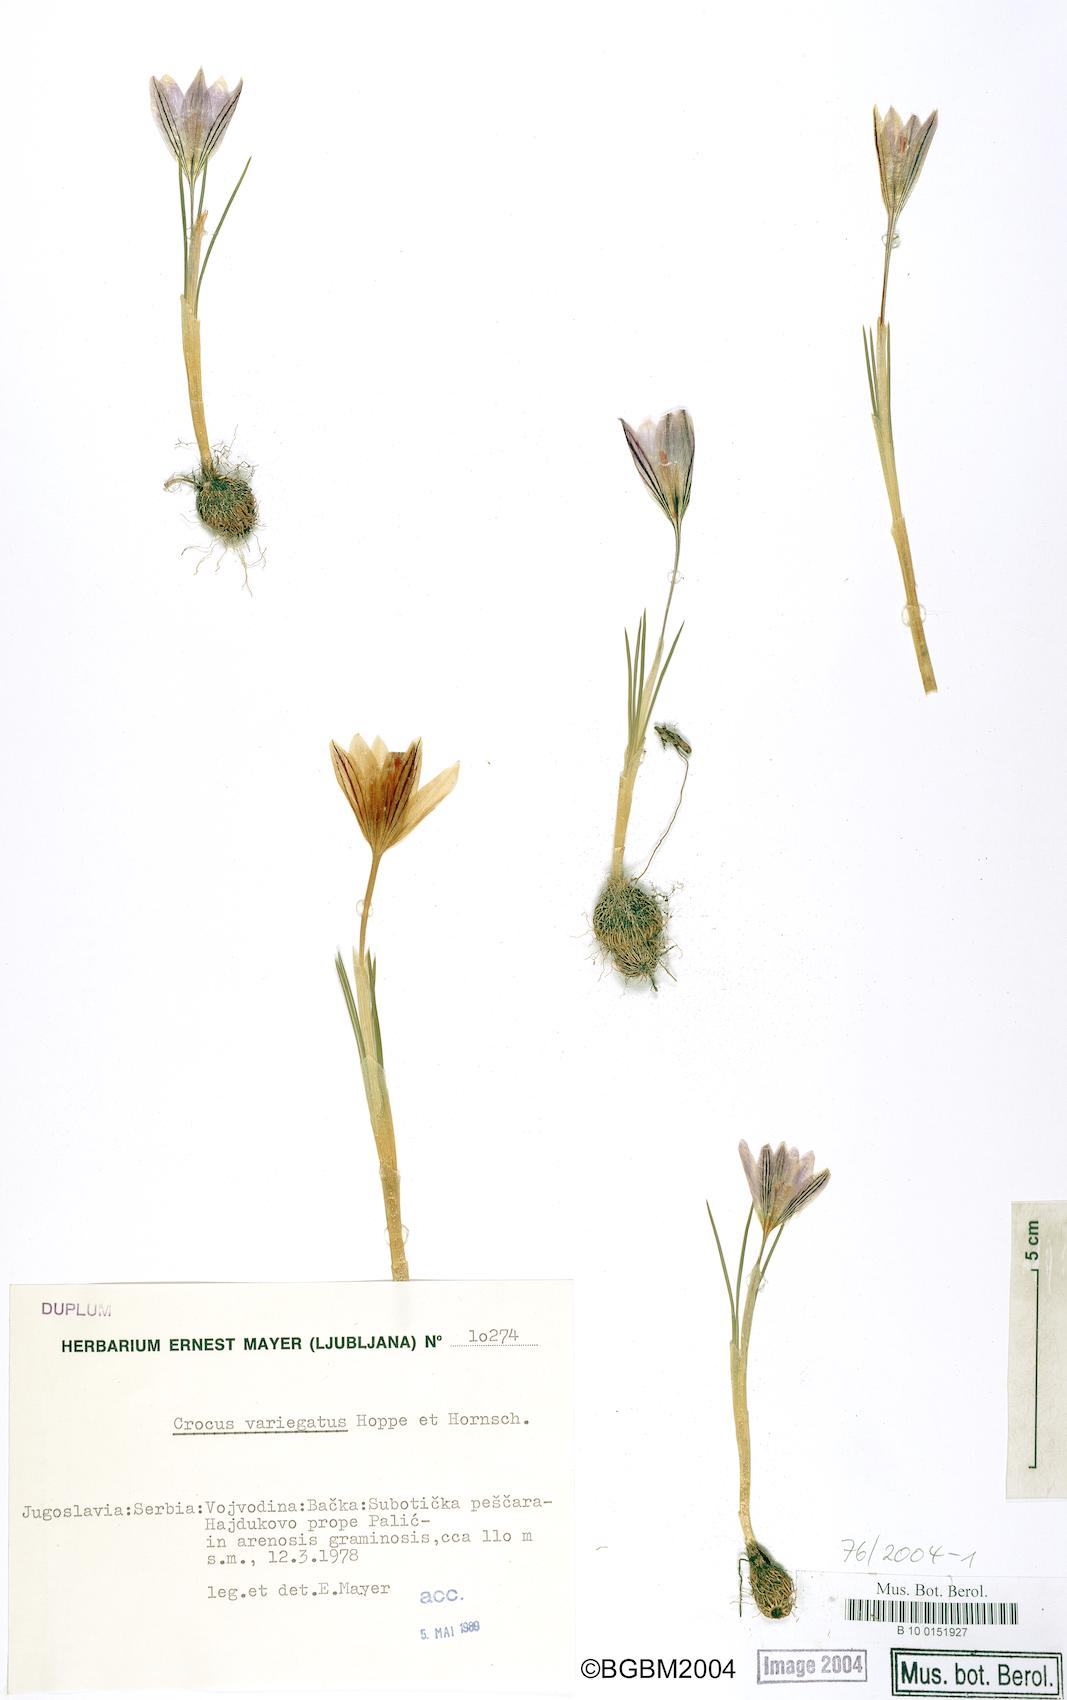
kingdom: Plantae
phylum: Tracheophyta
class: Liliopsida
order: Asparagales
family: Iridaceae
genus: Crocus
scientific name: Crocus variegatus
